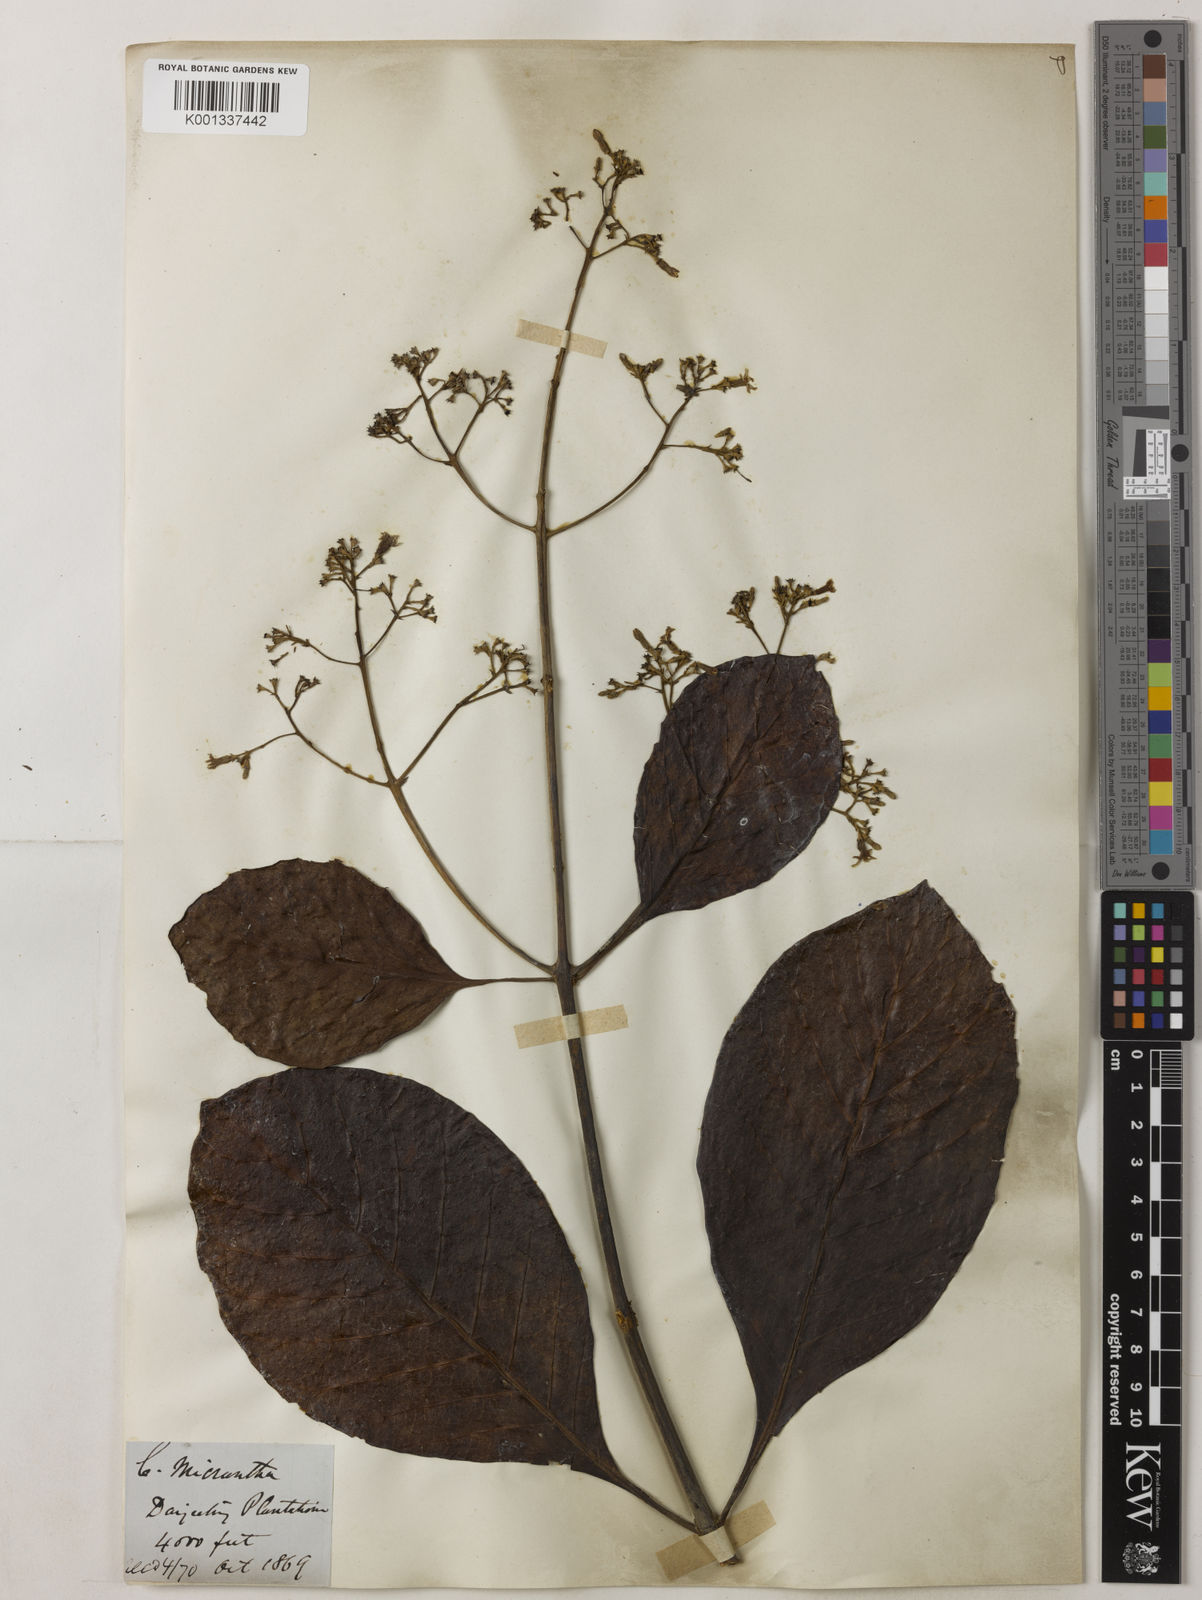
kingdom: Plantae
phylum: Tracheophyta
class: Magnoliopsida
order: Gentianales
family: Rubiaceae
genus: Cinchona
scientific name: Cinchona micrantha
